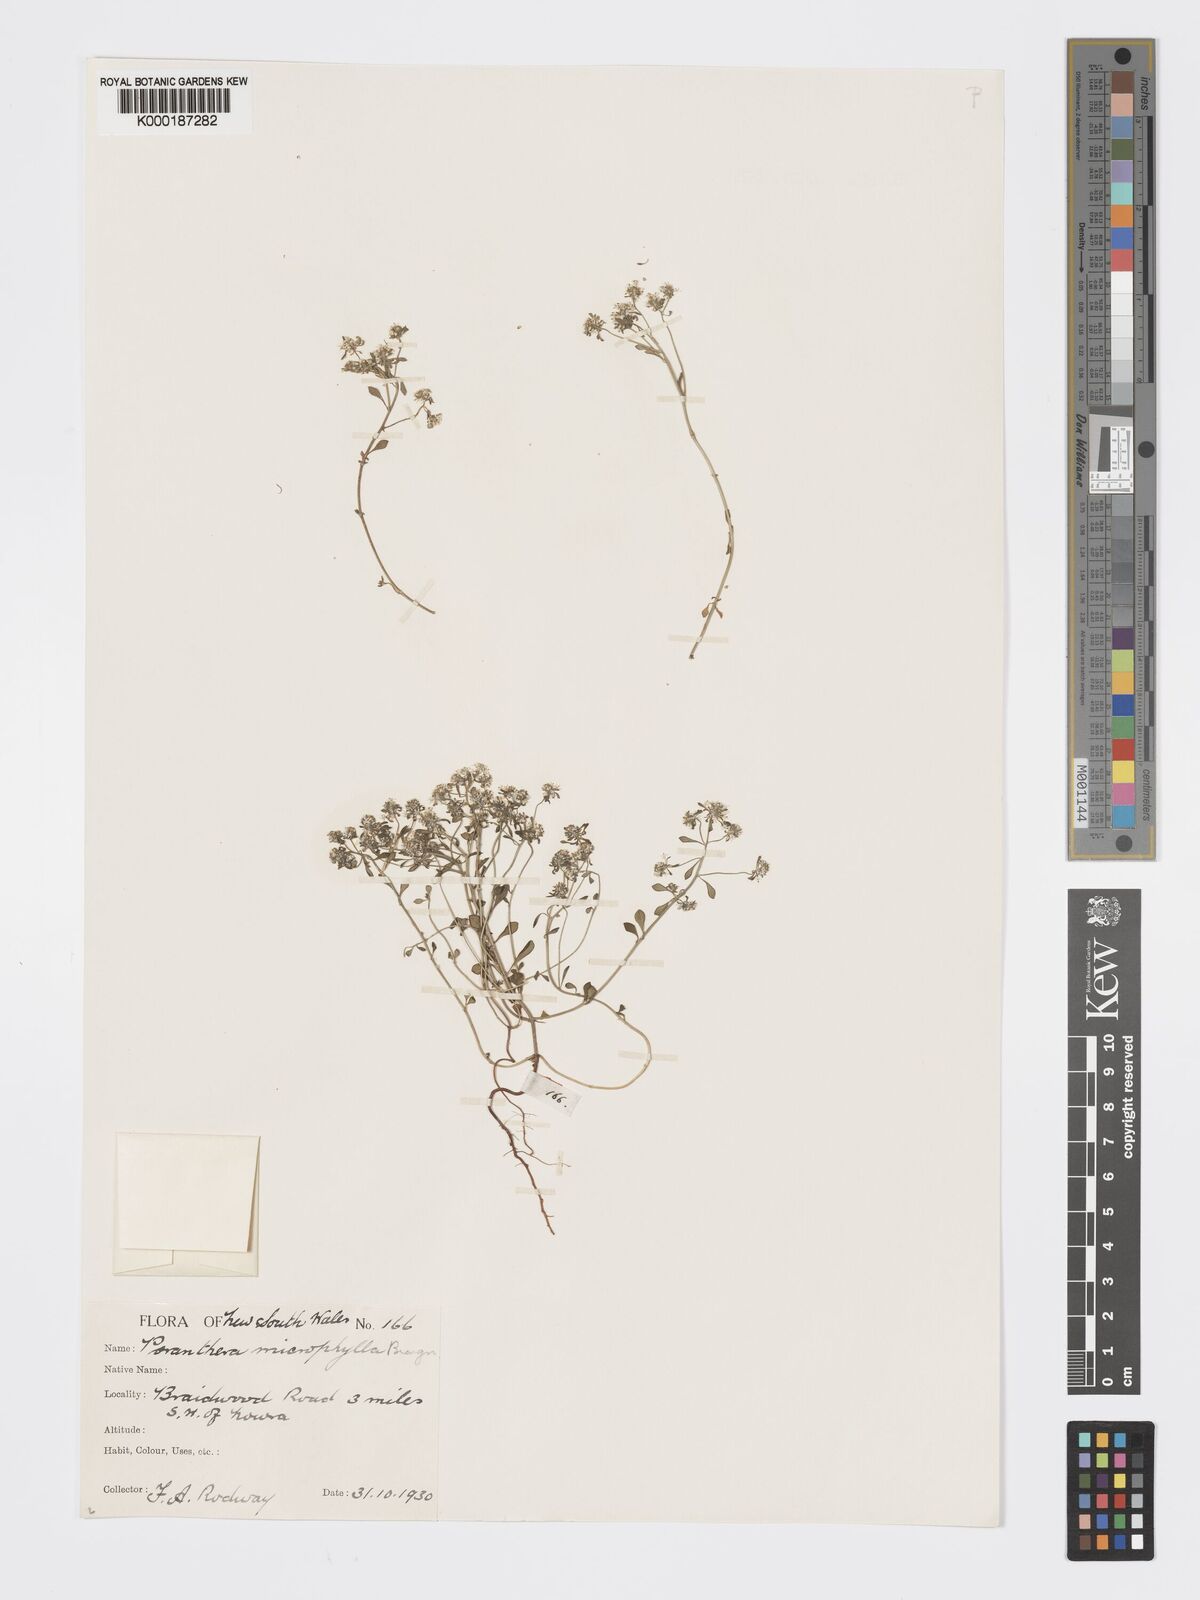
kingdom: Plantae
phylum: Tracheophyta
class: Magnoliopsida
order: Malpighiales
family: Phyllanthaceae
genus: Poranthera
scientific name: Poranthera microphylla
